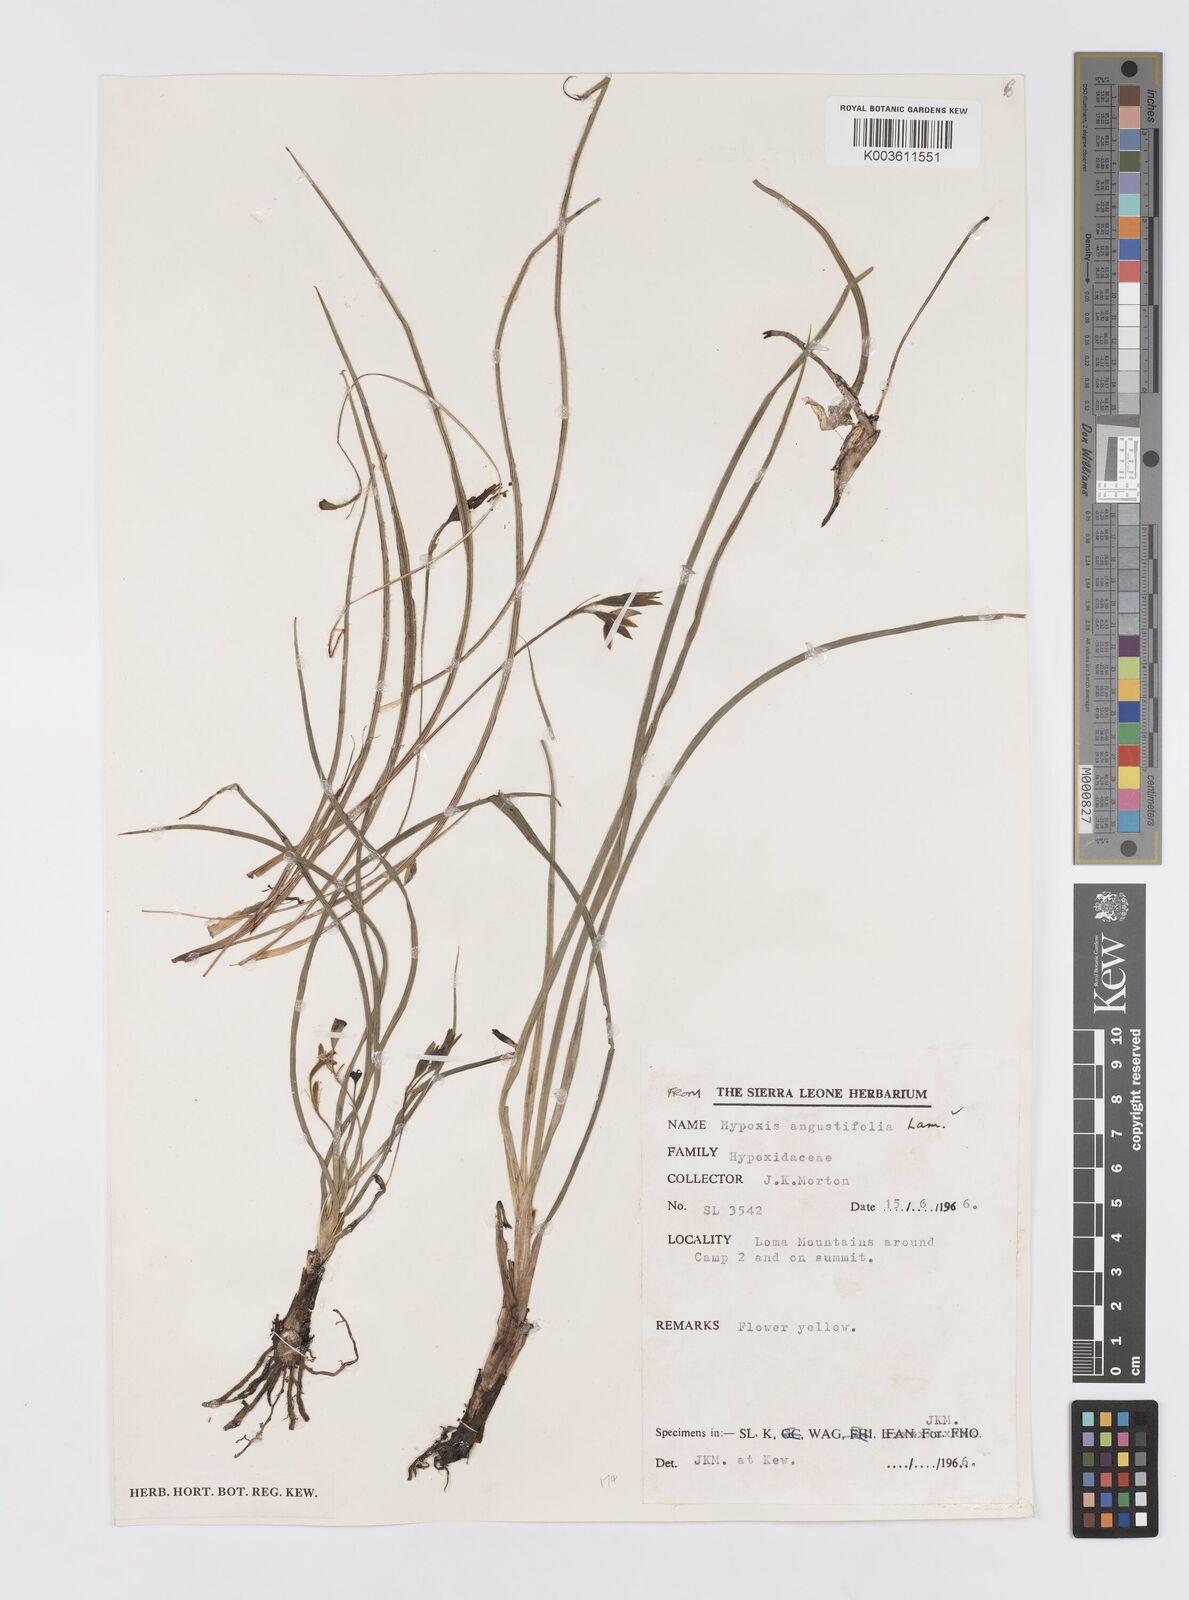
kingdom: Plantae
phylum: Tracheophyta
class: Liliopsida
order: Asparagales
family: Hypoxidaceae
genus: Hypoxis
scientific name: Hypoxis angustifolia
